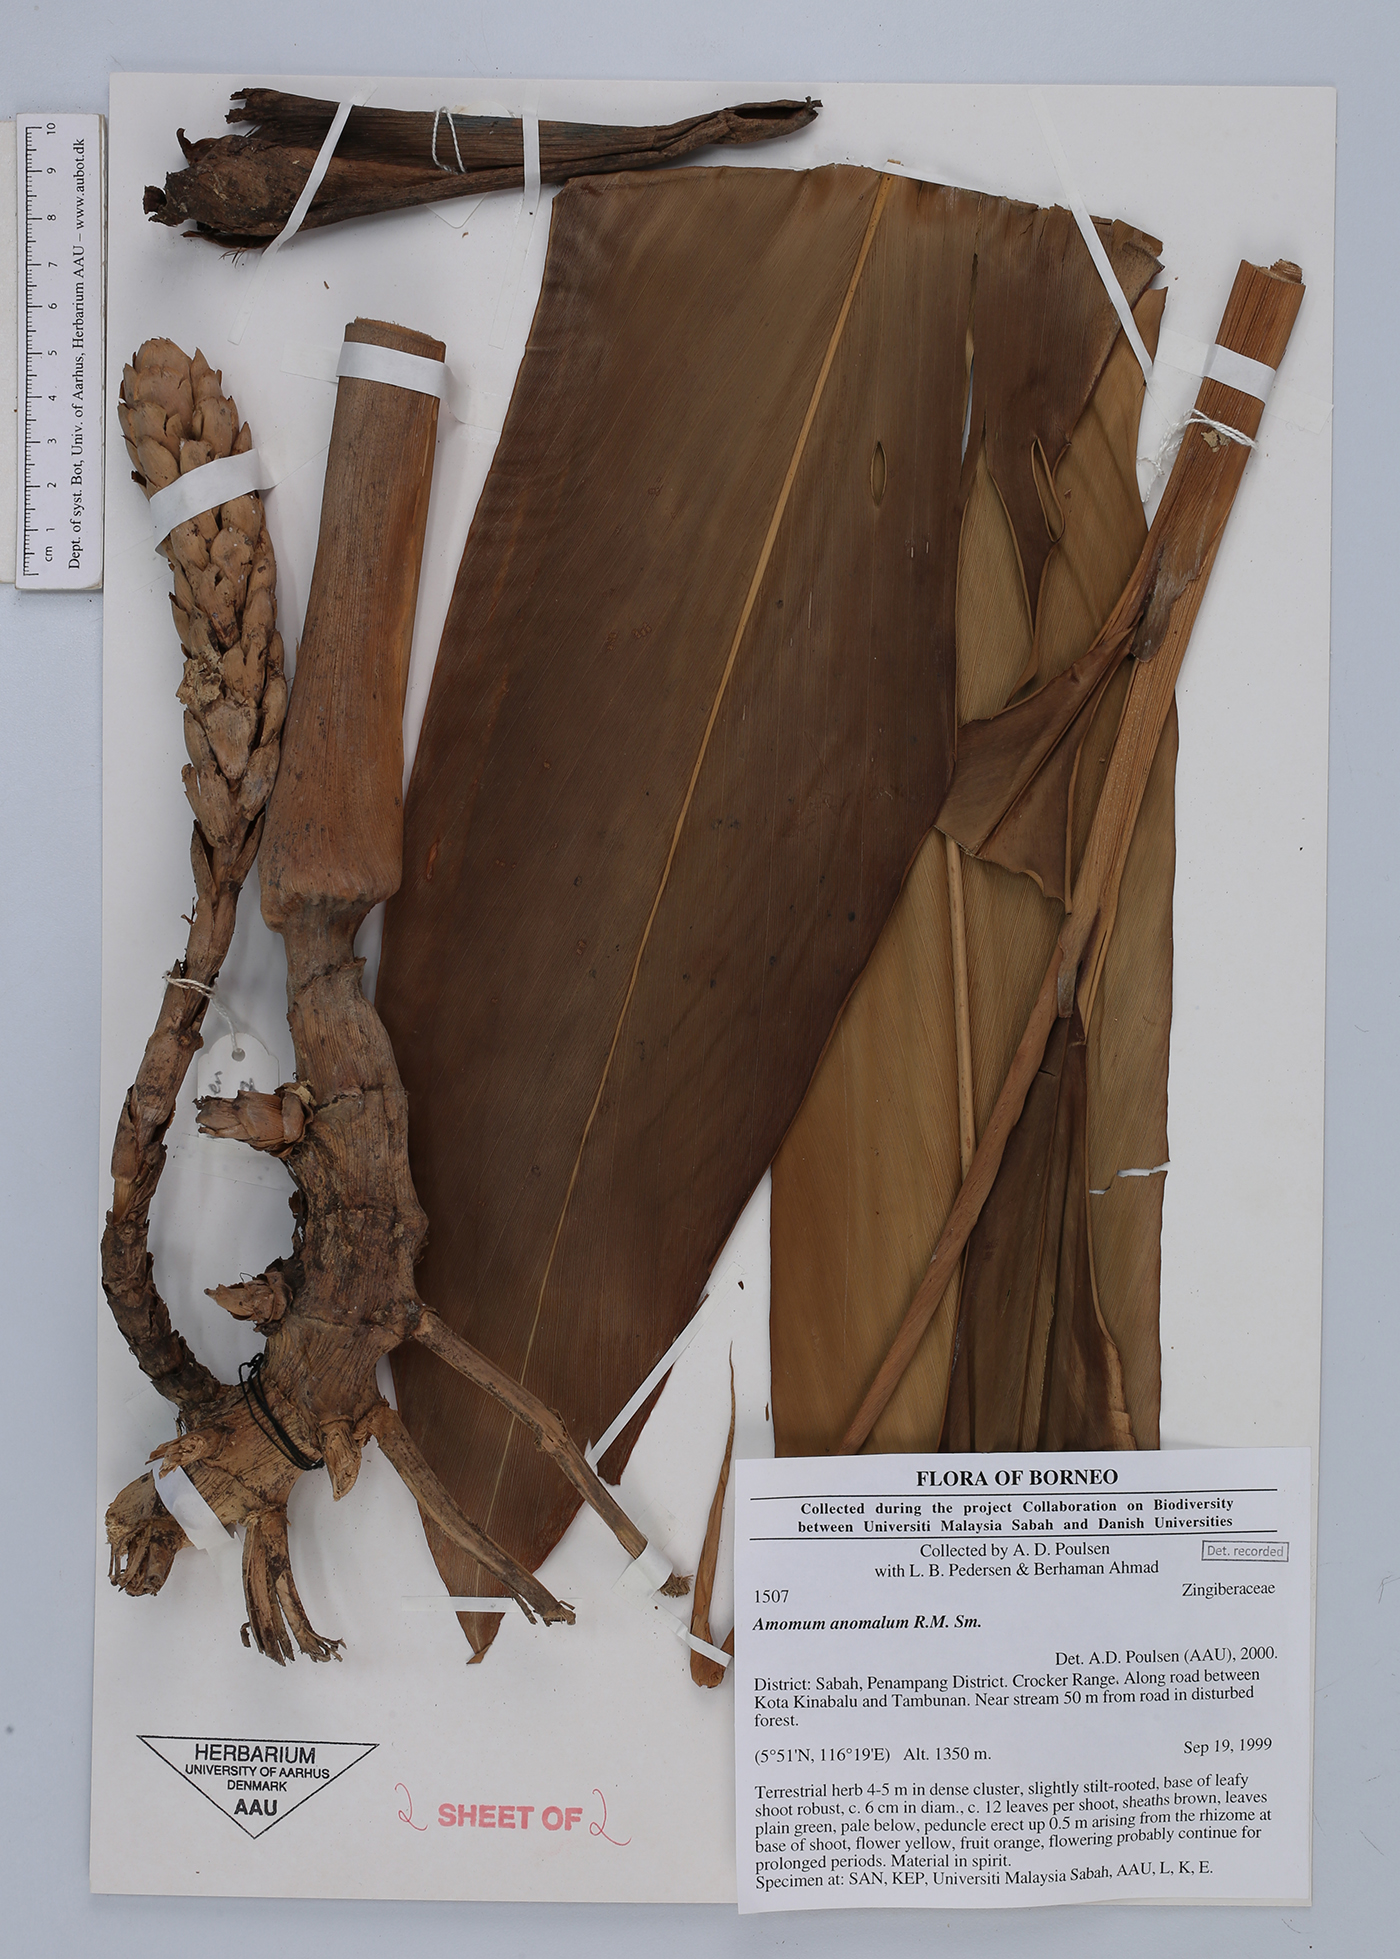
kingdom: Plantae
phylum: Tracheophyta
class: Liliopsida
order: Zingiberales
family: Zingiberaceae
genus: Sulettaria
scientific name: Sulettaria anomala
